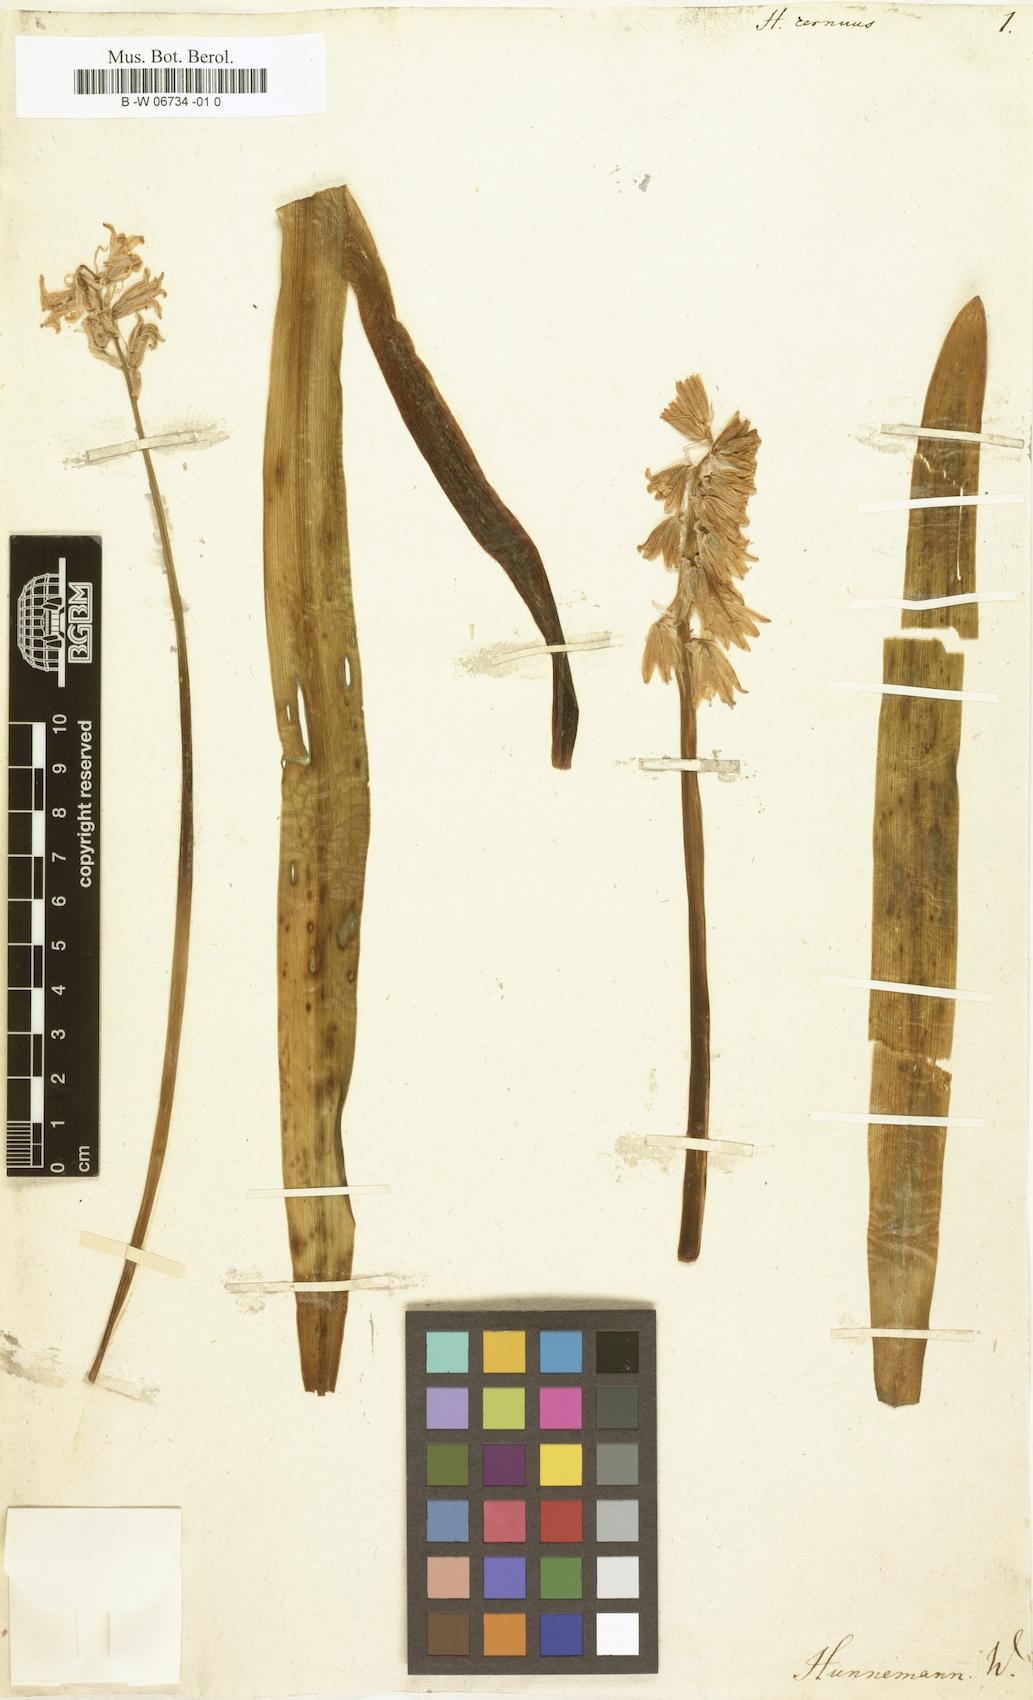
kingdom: Plantae
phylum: Tracheophyta
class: Liliopsida
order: Asparagales
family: Asparagaceae
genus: Hyacinthoides
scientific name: Hyacinthoides non-scripta
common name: Bluebell
